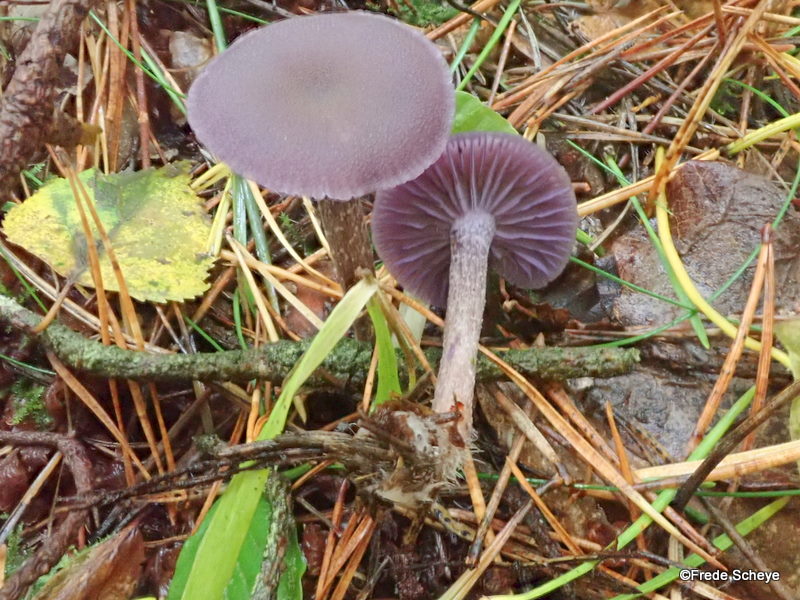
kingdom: Fungi
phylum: Basidiomycota
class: Agaricomycetes
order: Agaricales
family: Hydnangiaceae
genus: Laccaria
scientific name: Laccaria amethystina
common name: violet ametysthat
